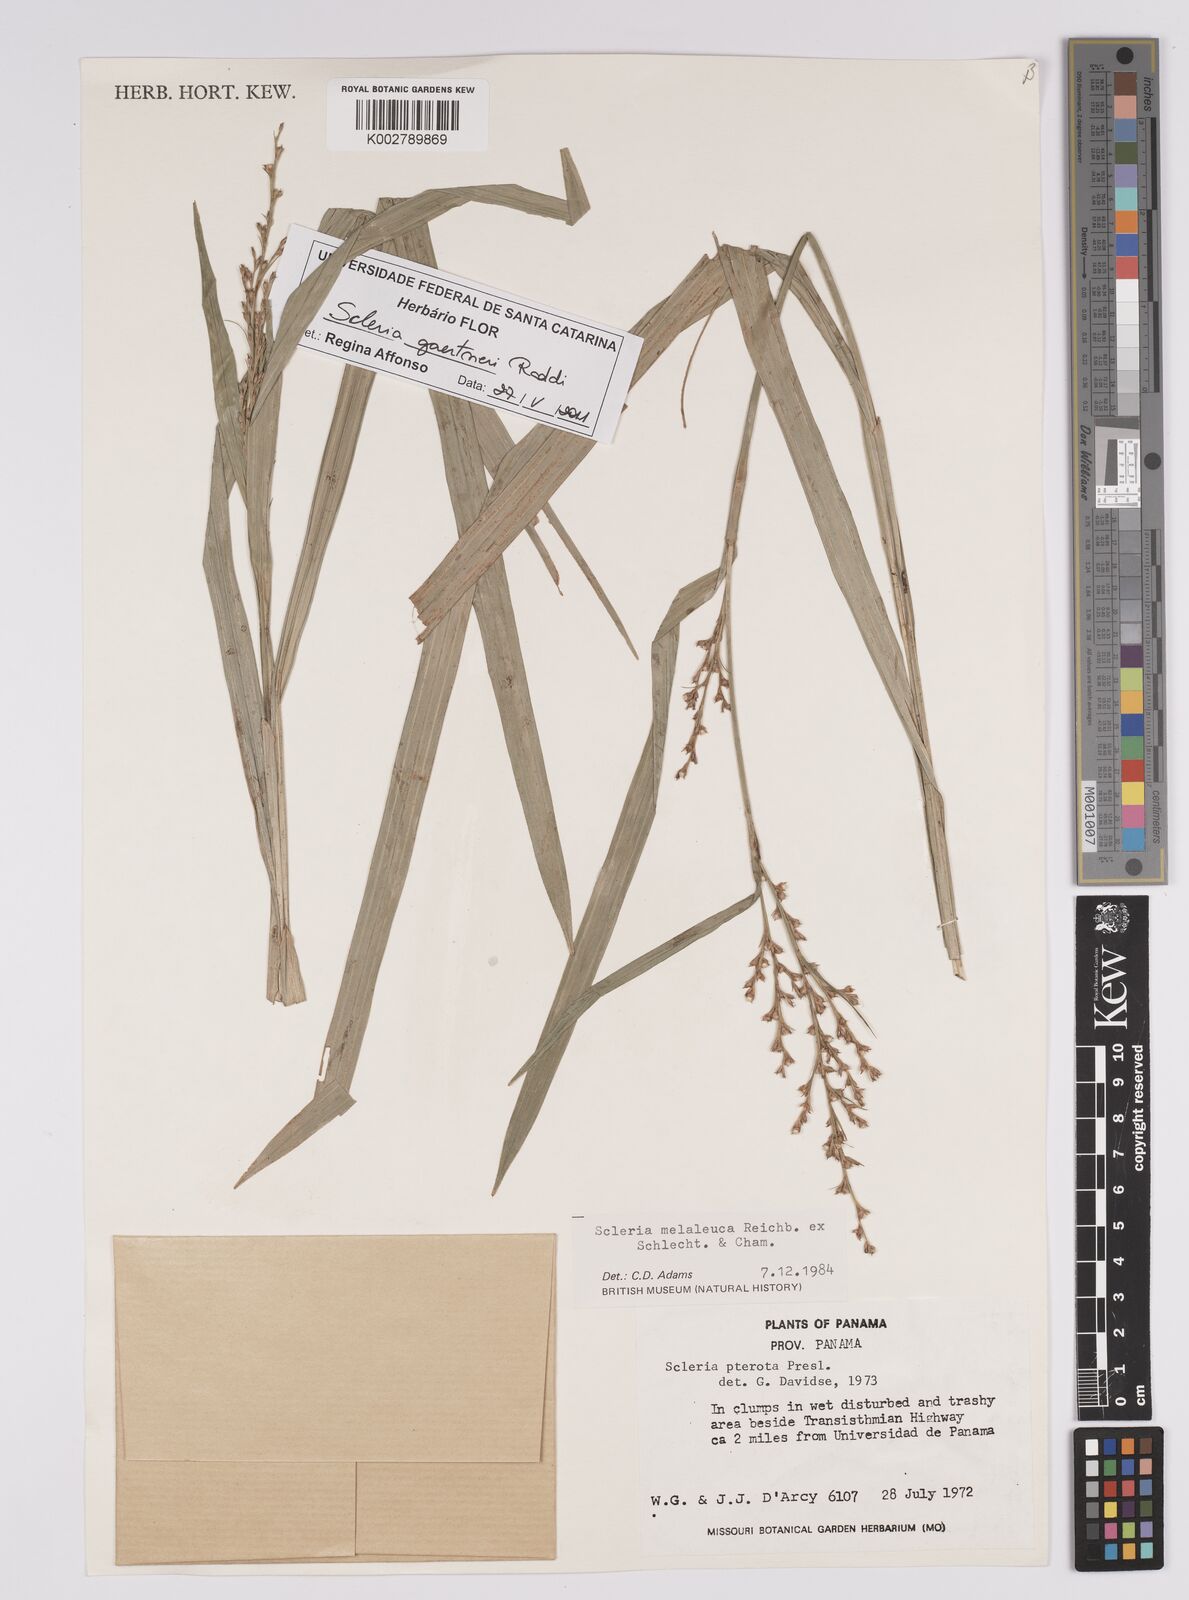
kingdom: Plantae
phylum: Tracheophyta
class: Liliopsida
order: Poales
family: Cyperaceae
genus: Scleria
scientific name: Scleria gaertneri
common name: Cortadera blanca
